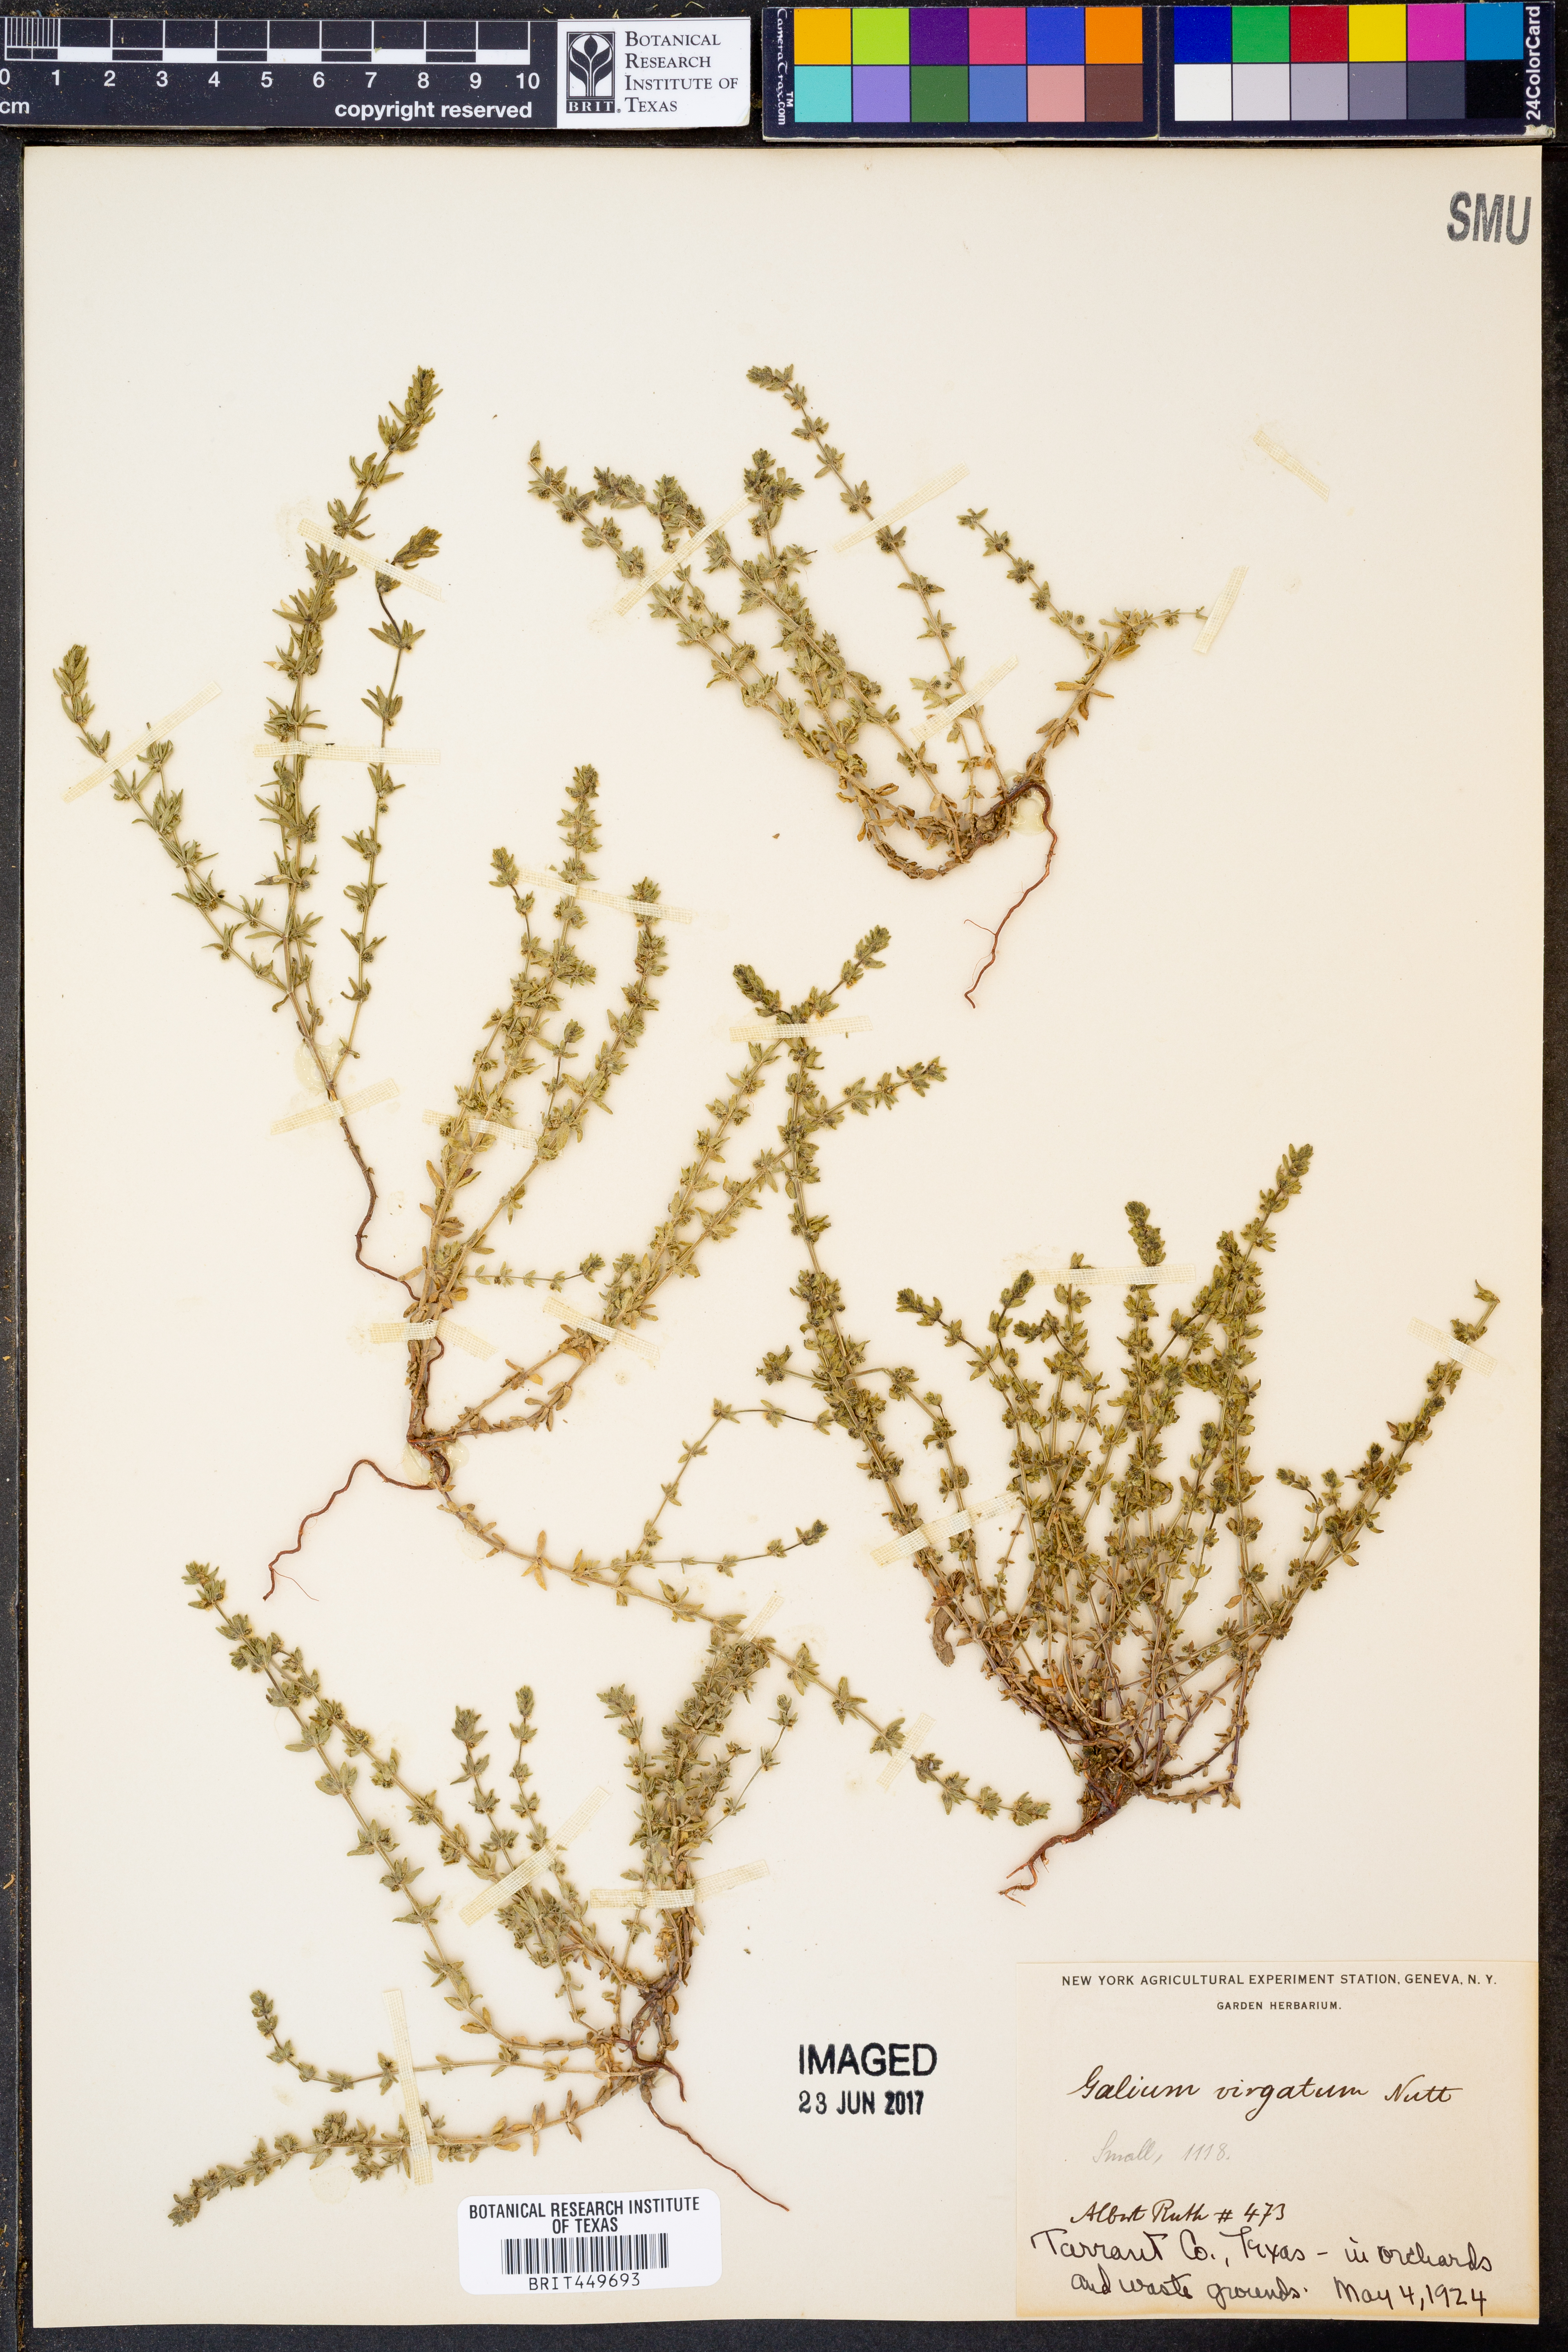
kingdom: Plantae
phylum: Tracheophyta
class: Magnoliopsida
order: Gentianales
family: Rubiaceae
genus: Galium
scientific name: Galium virgatum
